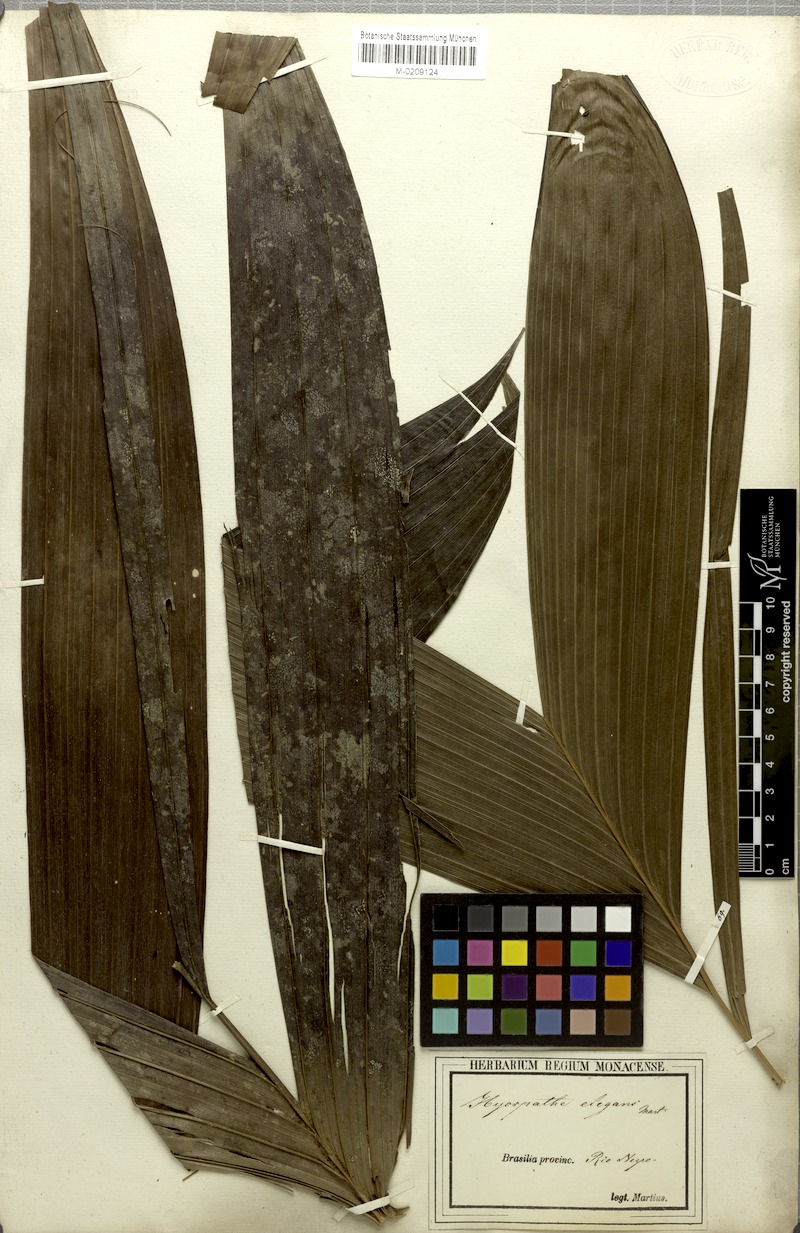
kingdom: Plantae
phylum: Tracheophyta
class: Liliopsida
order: Arecales
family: Arecaceae
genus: Hyospathe
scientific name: Hyospathe elegans
